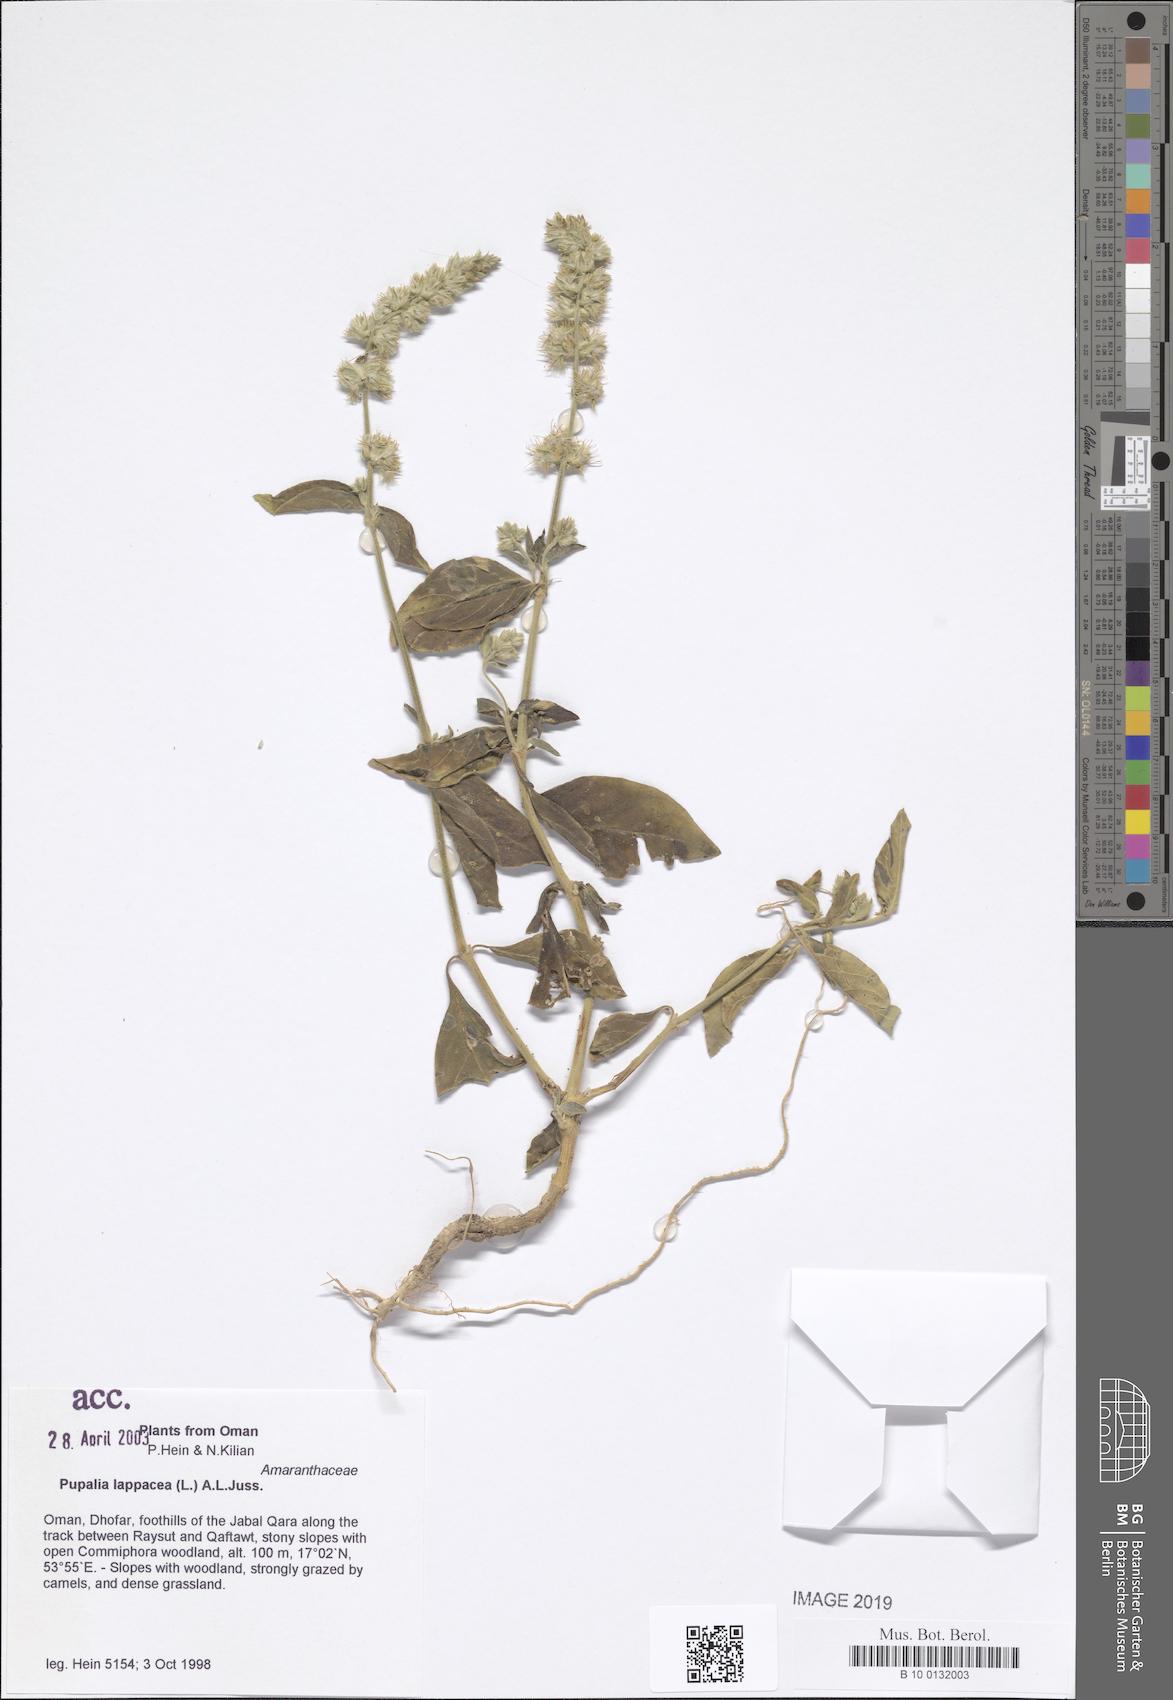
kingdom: Plantae
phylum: Tracheophyta
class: Magnoliopsida
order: Caryophyllales
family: Amaranthaceae
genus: Pupalia
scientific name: Pupalia lappacea
